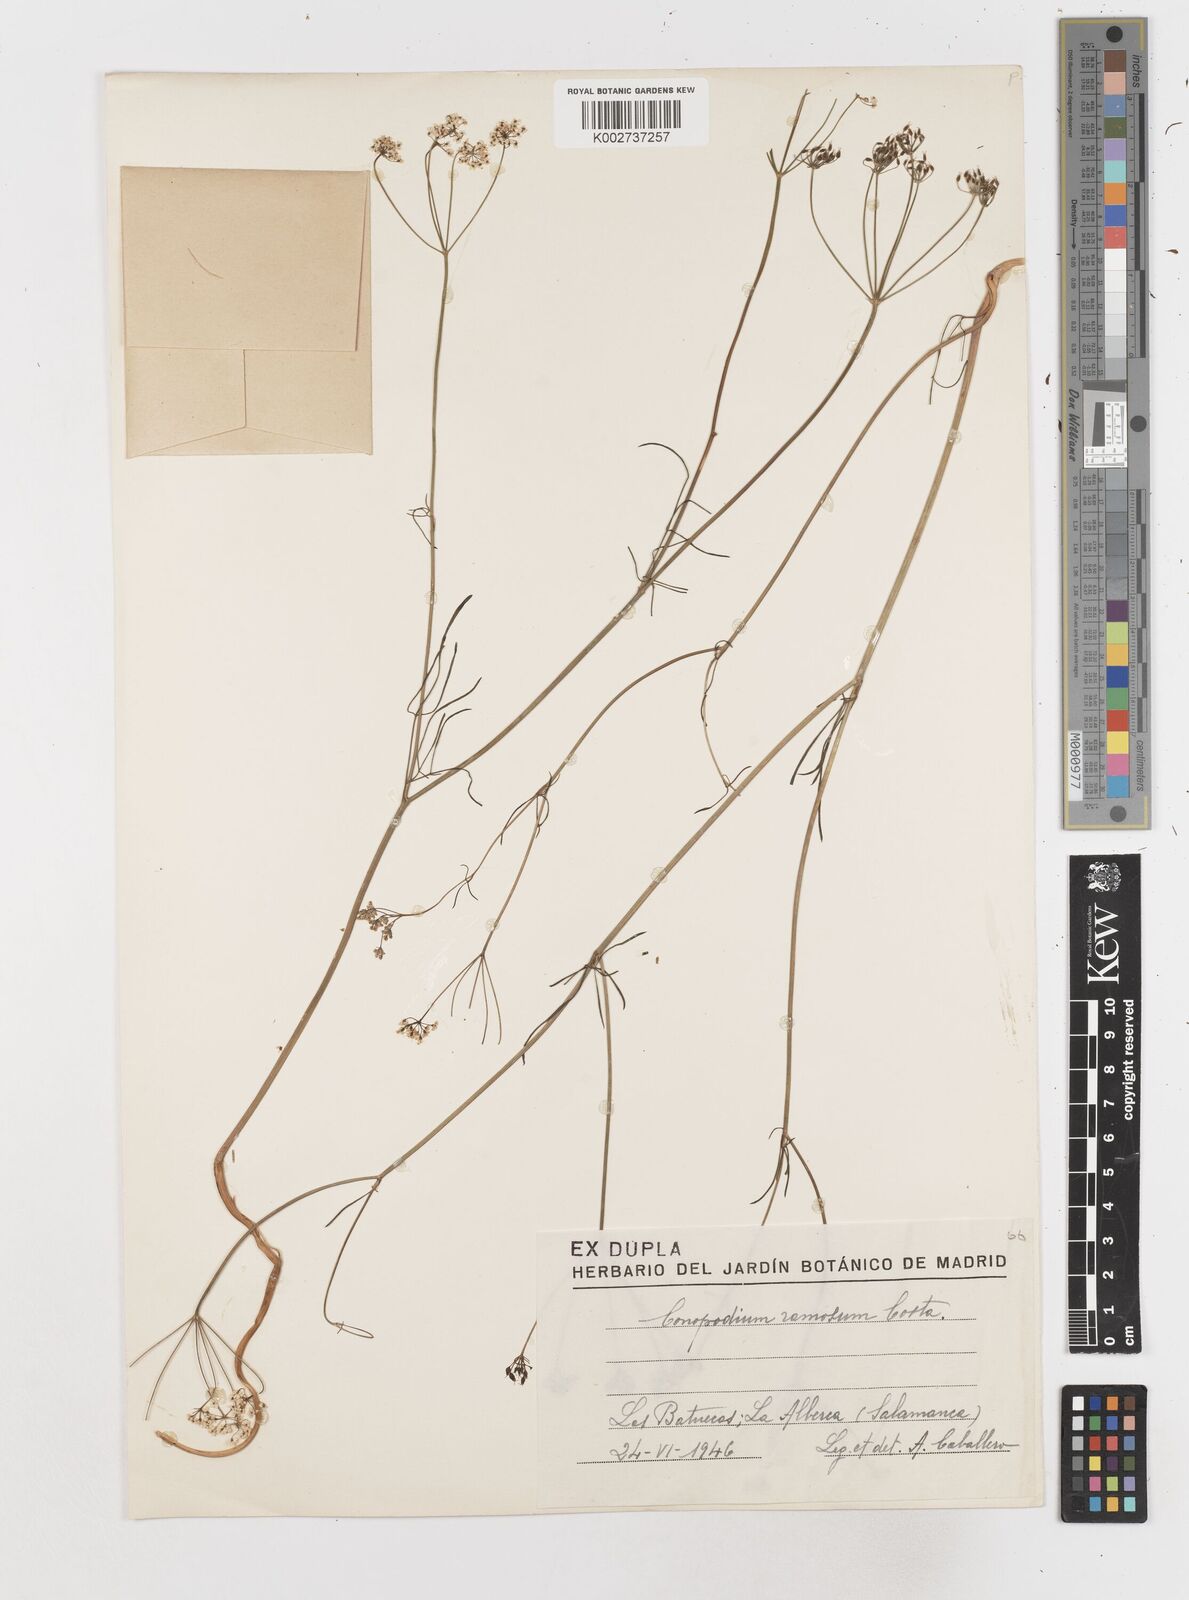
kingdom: Plantae
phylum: Tracheophyta
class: Magnoliopsida
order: Apiales
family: Apiaceae
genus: Conopodium
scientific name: Conopodium arvense
